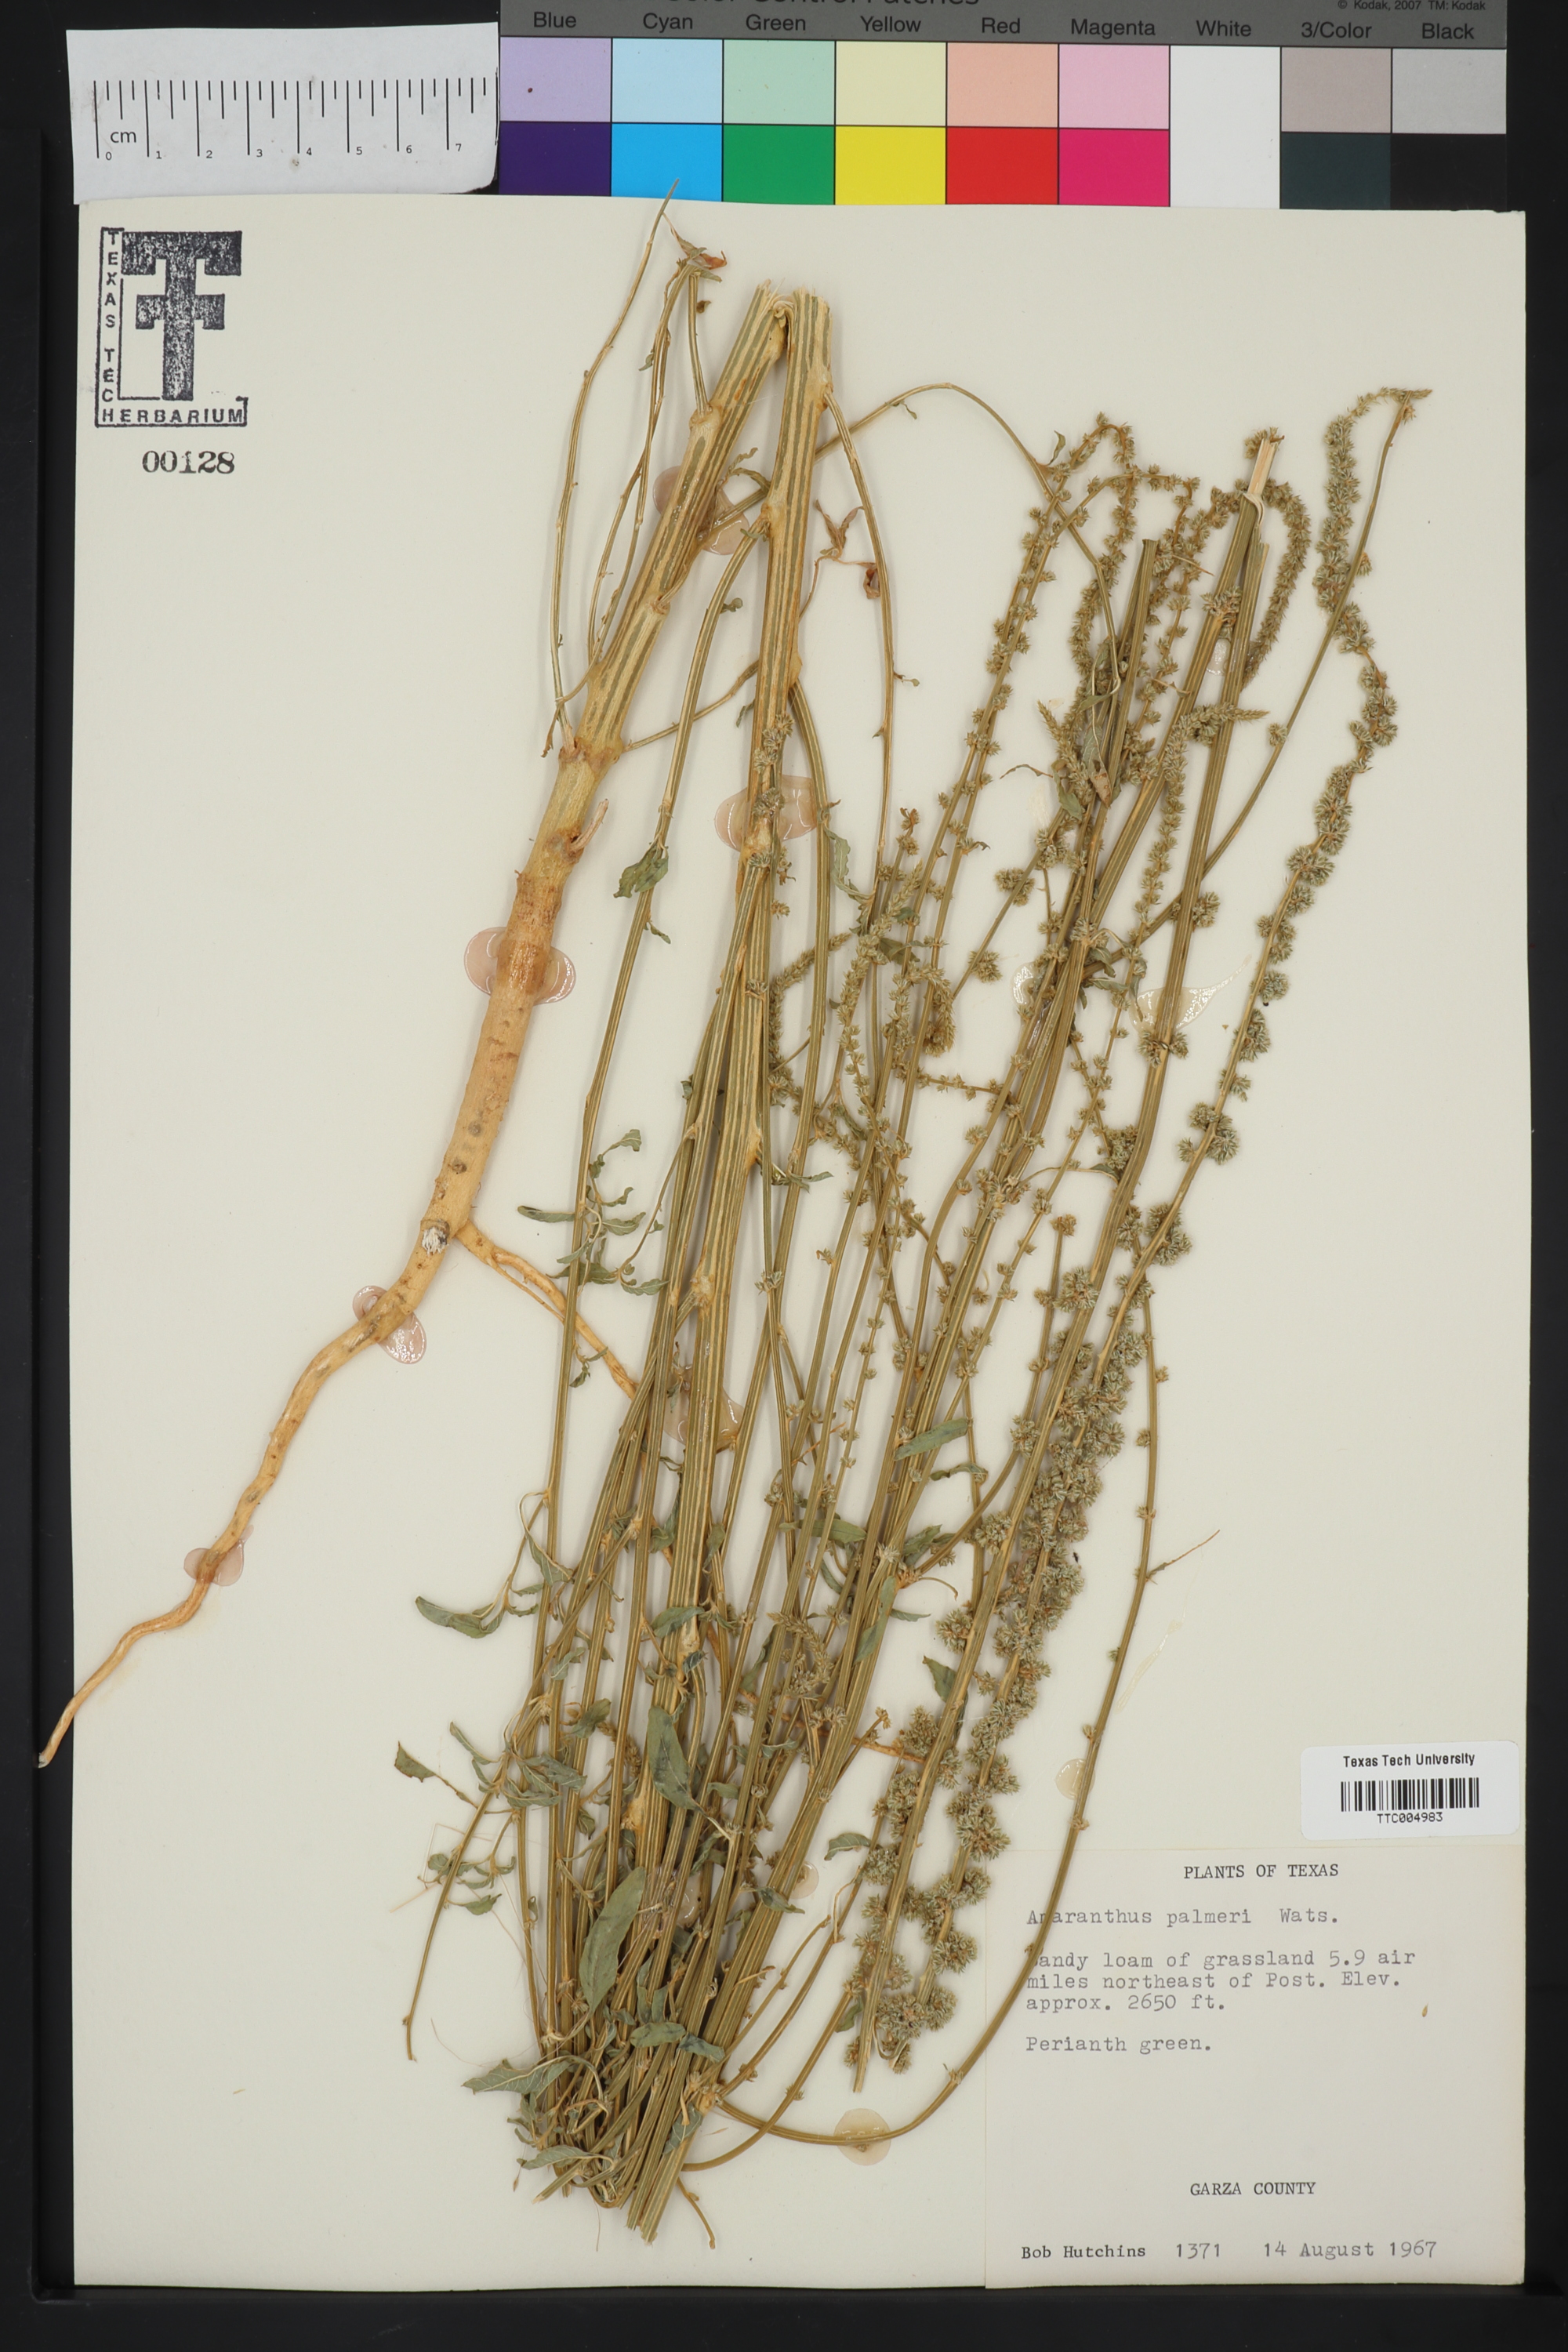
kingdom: Plantae
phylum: Tracheophyta
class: Magnoliopsida
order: Caryophyllales
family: Amaranthaceae
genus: Amaranthus
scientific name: Amaranthus palmeri
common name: Dioecious amaranth
